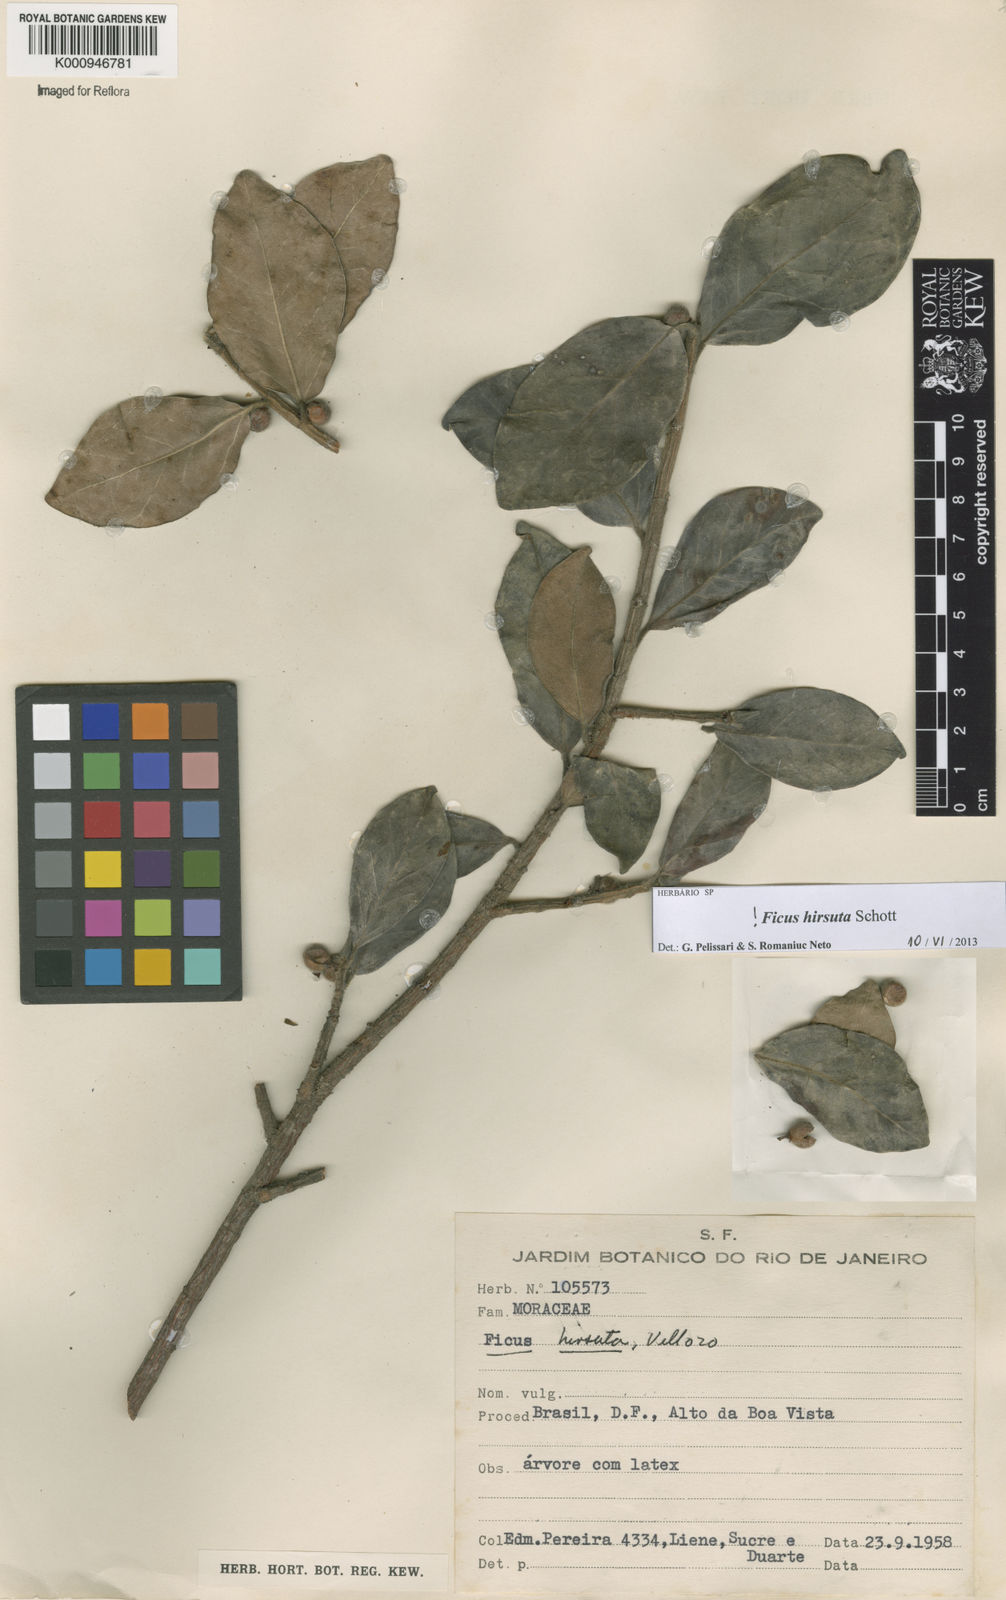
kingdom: Plantae
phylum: Tracheophyta
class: Magnoliopsida
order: Rosales
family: Moraceae
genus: Ficus
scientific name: Ficus hirsuta
